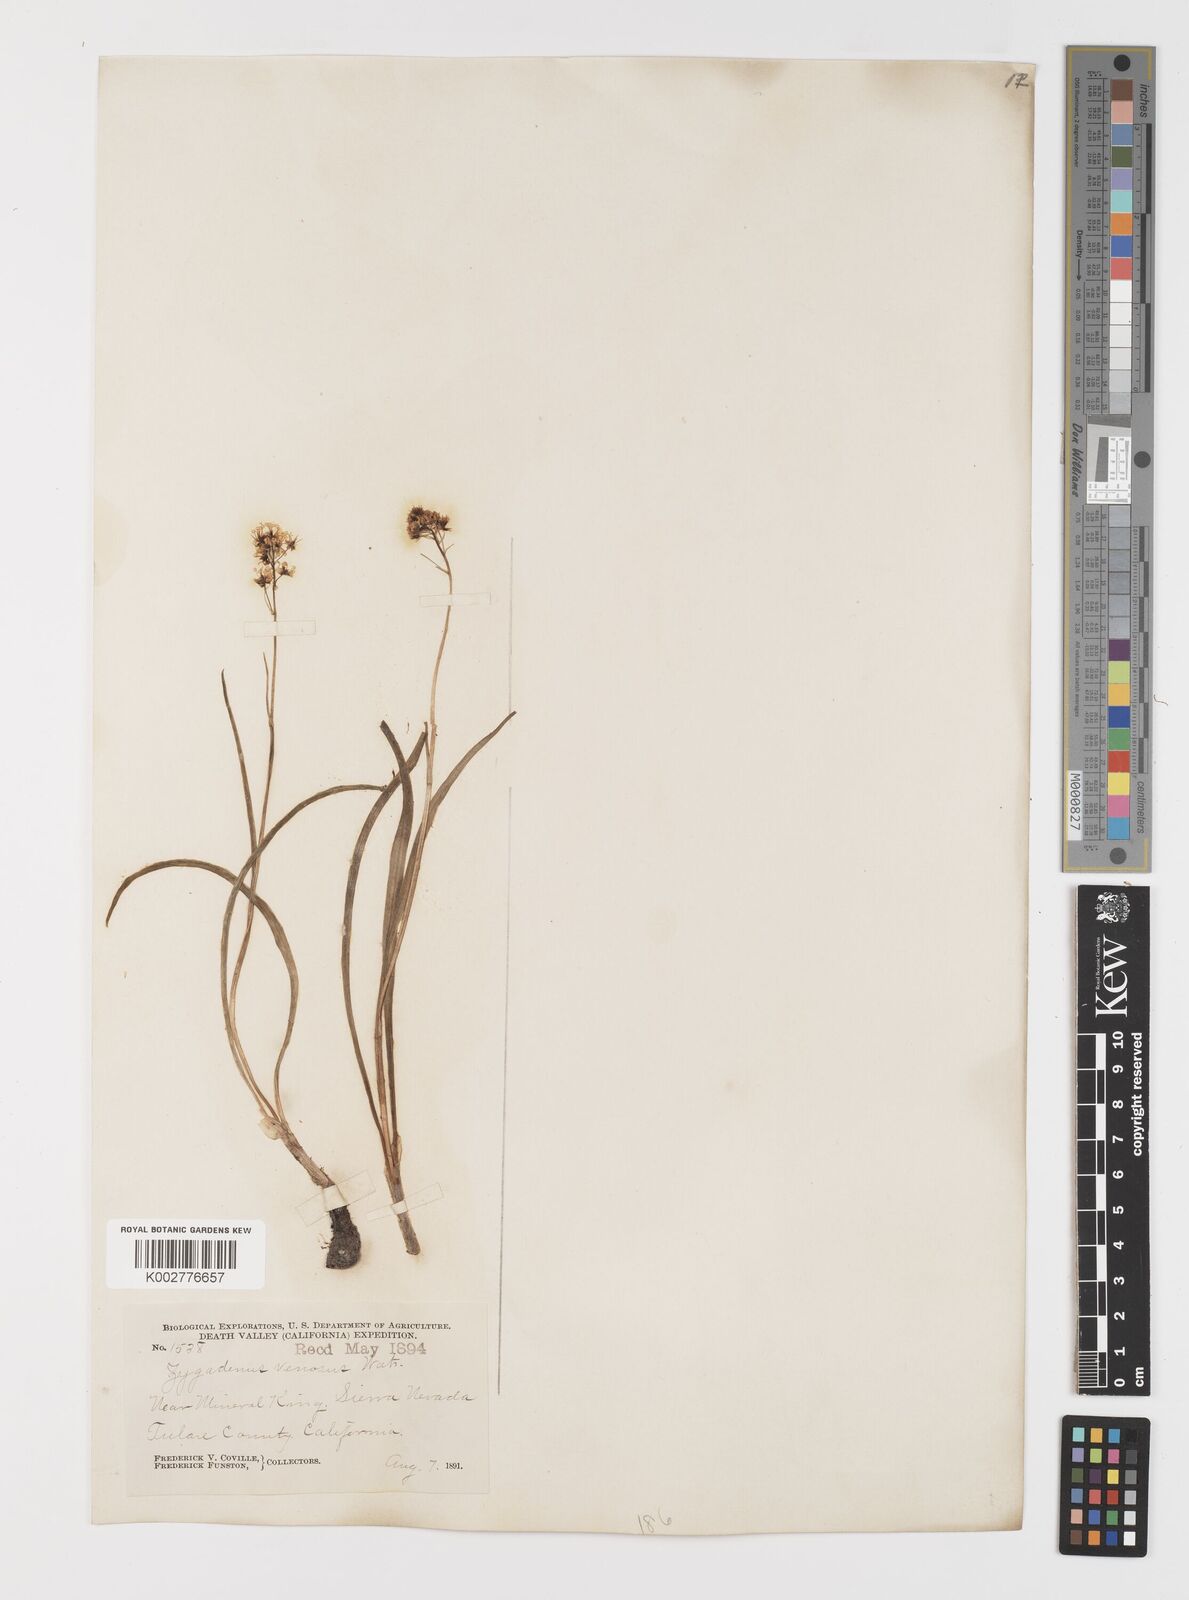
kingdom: Plantae
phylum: Tracheophyta
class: Liliopsida
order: Liliales
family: Melanthiaceae
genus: Toxicoscordion
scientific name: Toxicoscordion venenosum
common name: Meadow death camas
